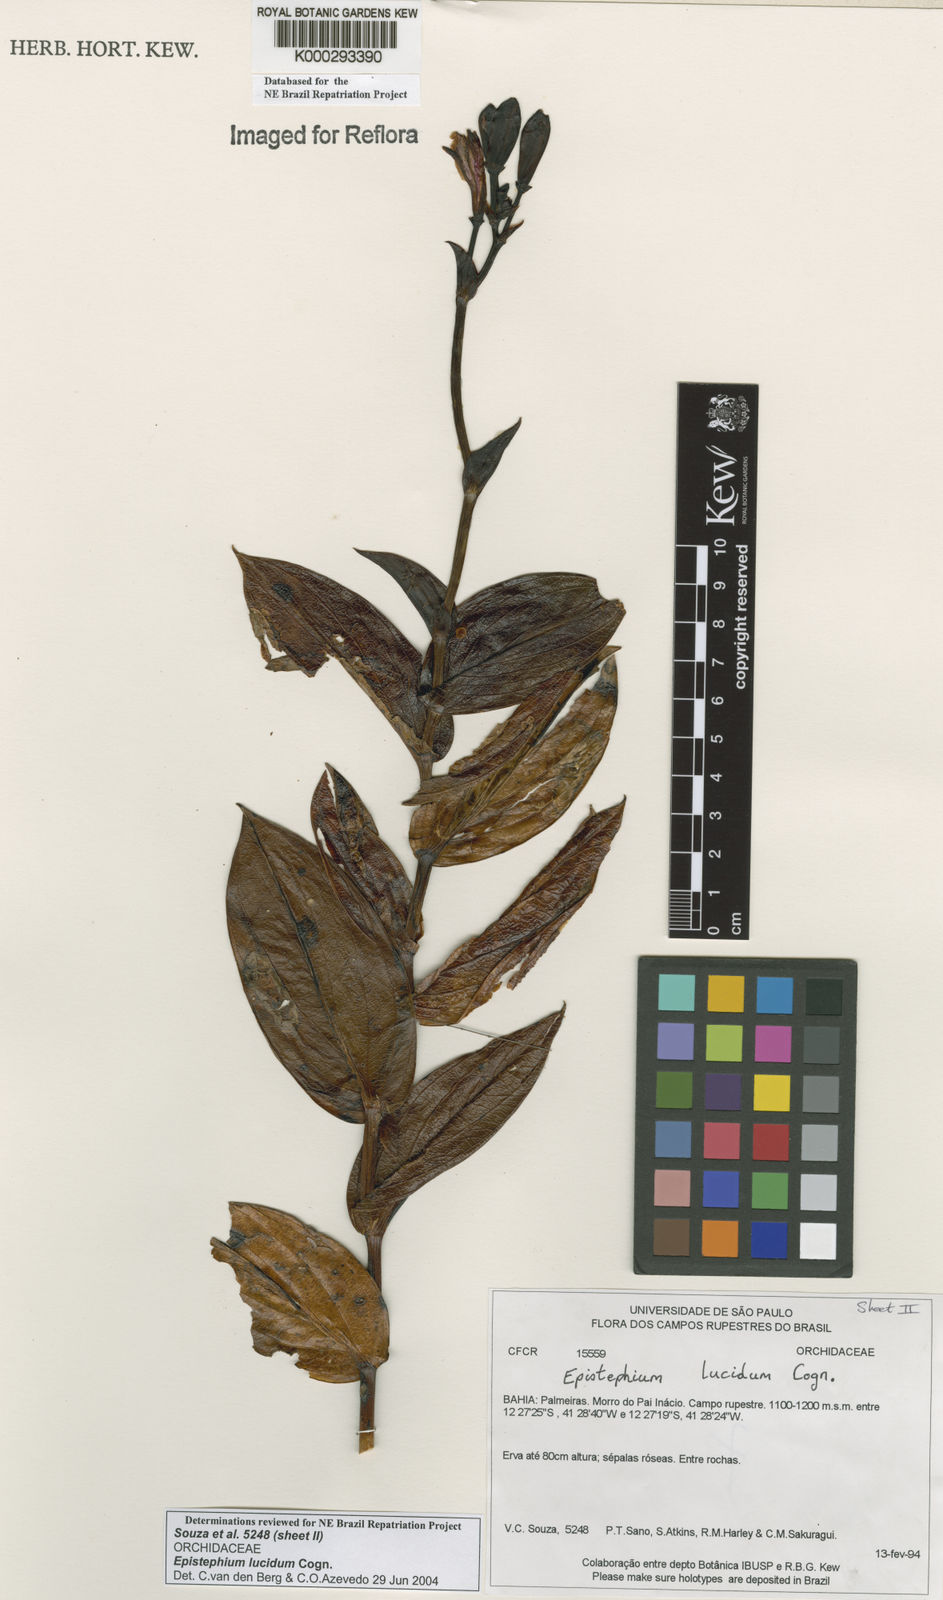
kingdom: Plantae
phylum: Tracheophyta
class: Liliopsida
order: Asparagales
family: Orchidaceae
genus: Epistephium
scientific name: Epistephium williamsii
